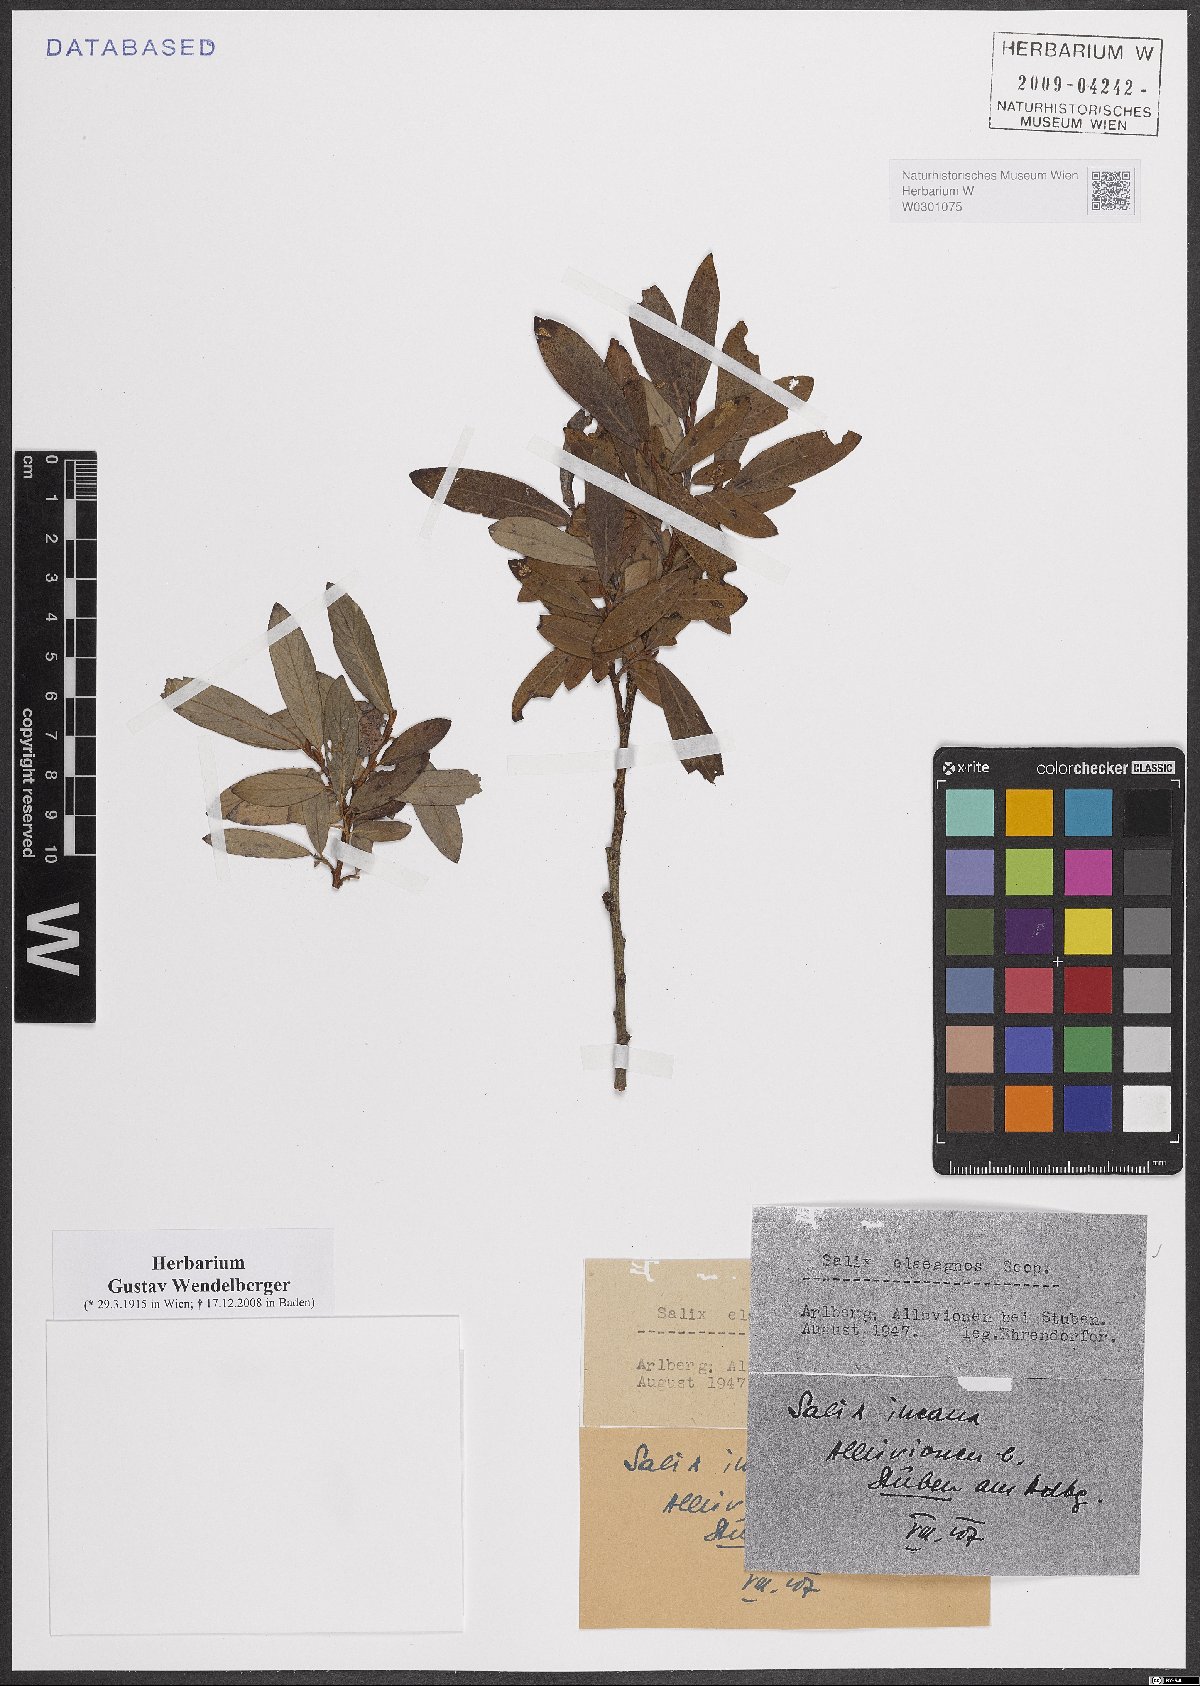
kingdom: Plantae
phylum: Tracheophyta
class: Magnoliopsida
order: Malpighiales
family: Salicaceae
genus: Salix
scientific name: Salix eleagnos
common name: Elaeagnus willow
